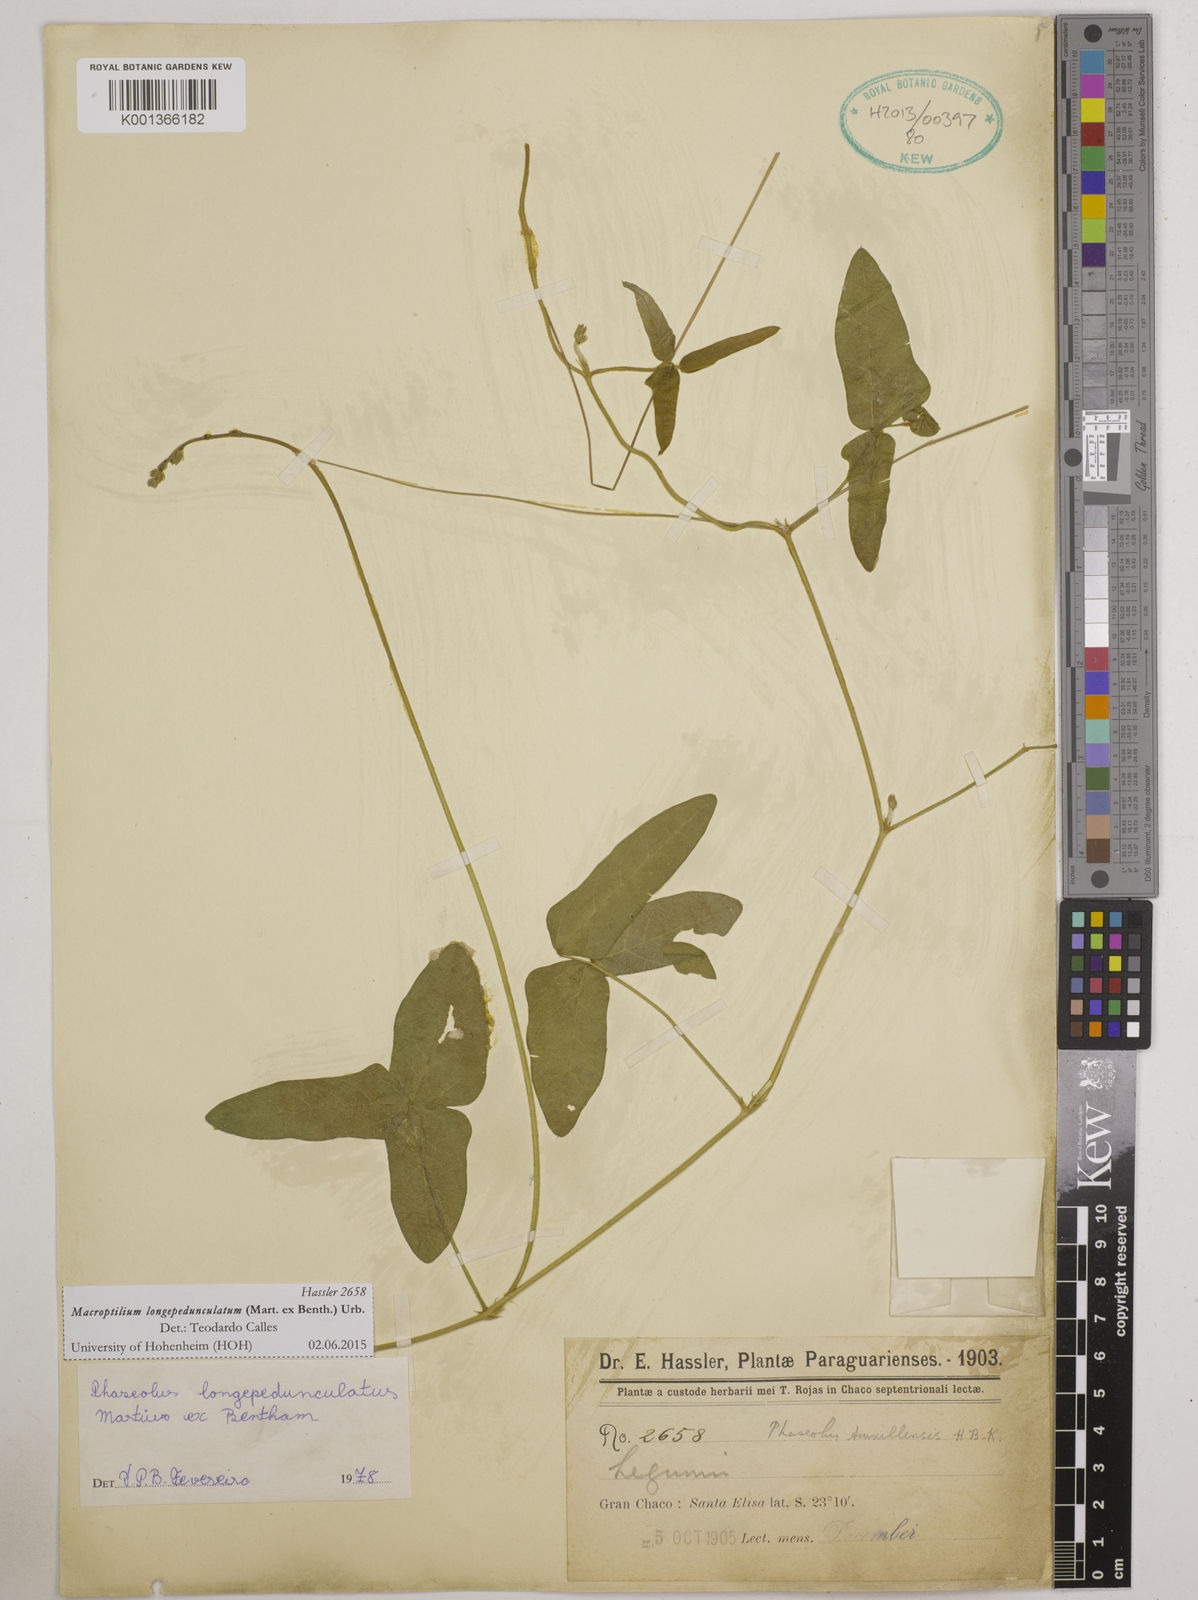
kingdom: Plantae
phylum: Tracheophyta
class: Magnoliopsida
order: Fabales
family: Fabaceae
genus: Macroptilium
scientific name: Macroptilium longepedunculatum
